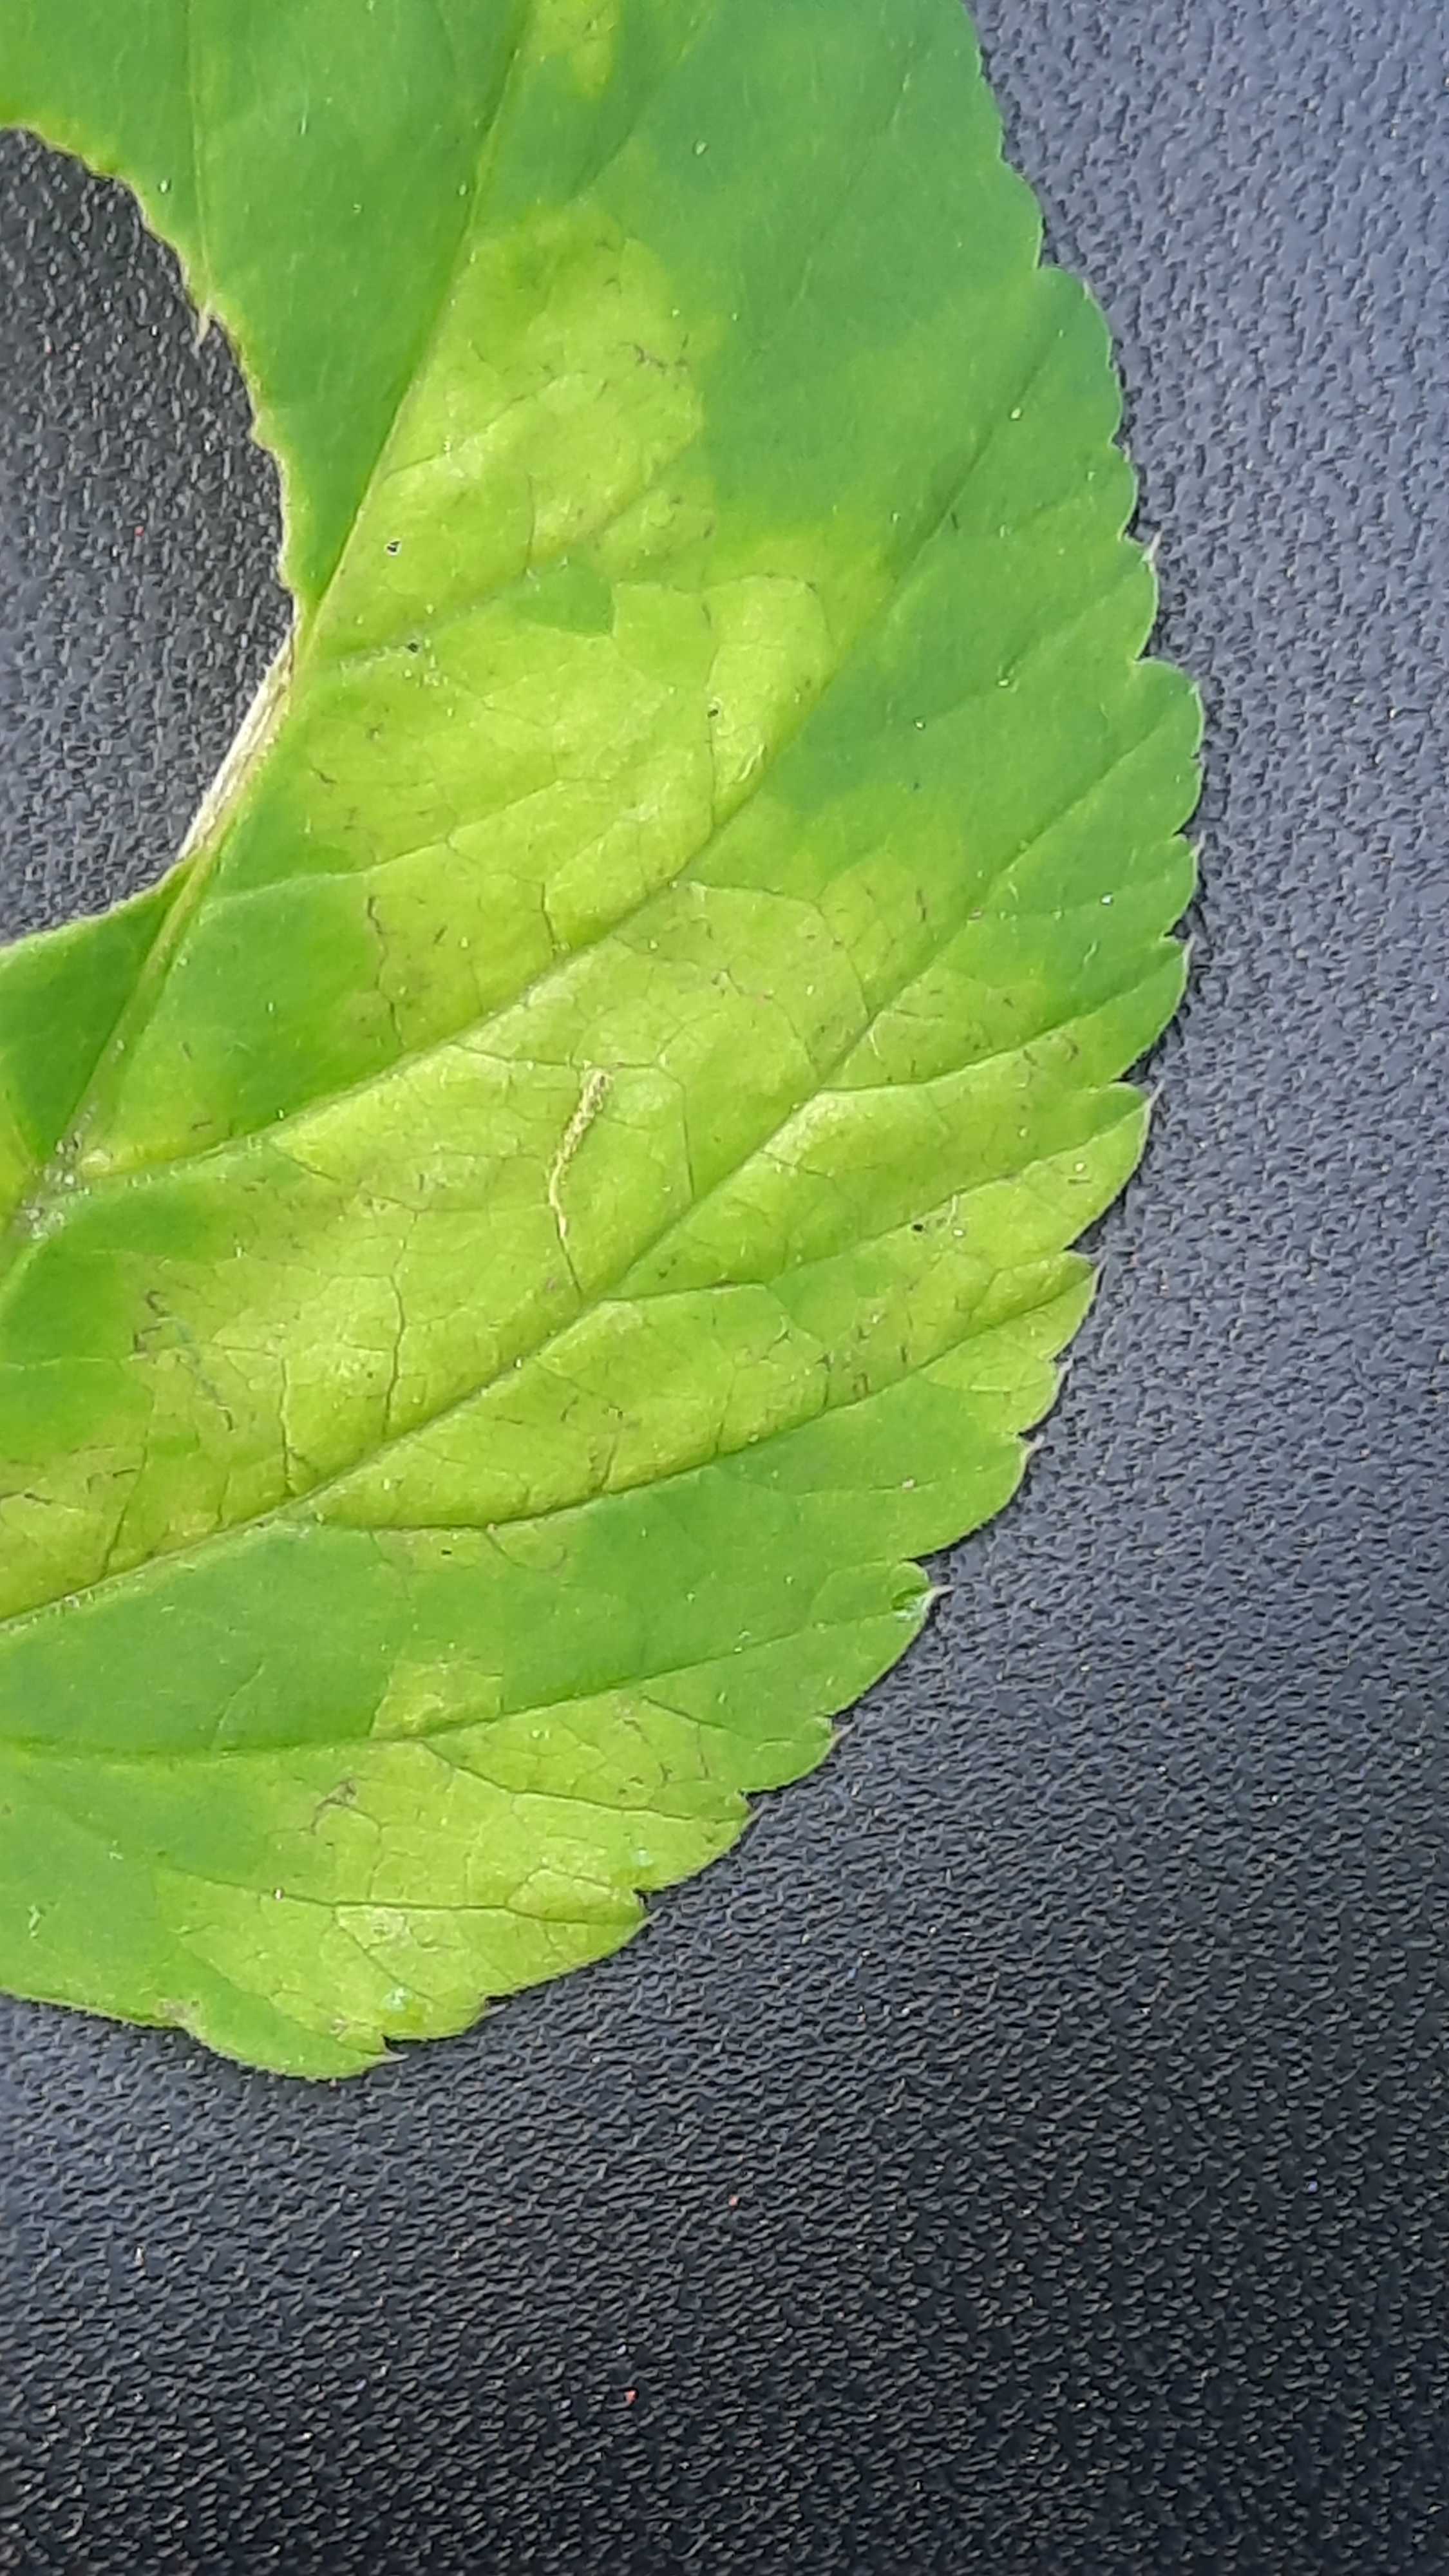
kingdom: Chromista
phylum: Oomycota
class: Peronosporea
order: Peronosporales
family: Peronosporaceae
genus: Peronospora
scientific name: Peronospora crustosa
